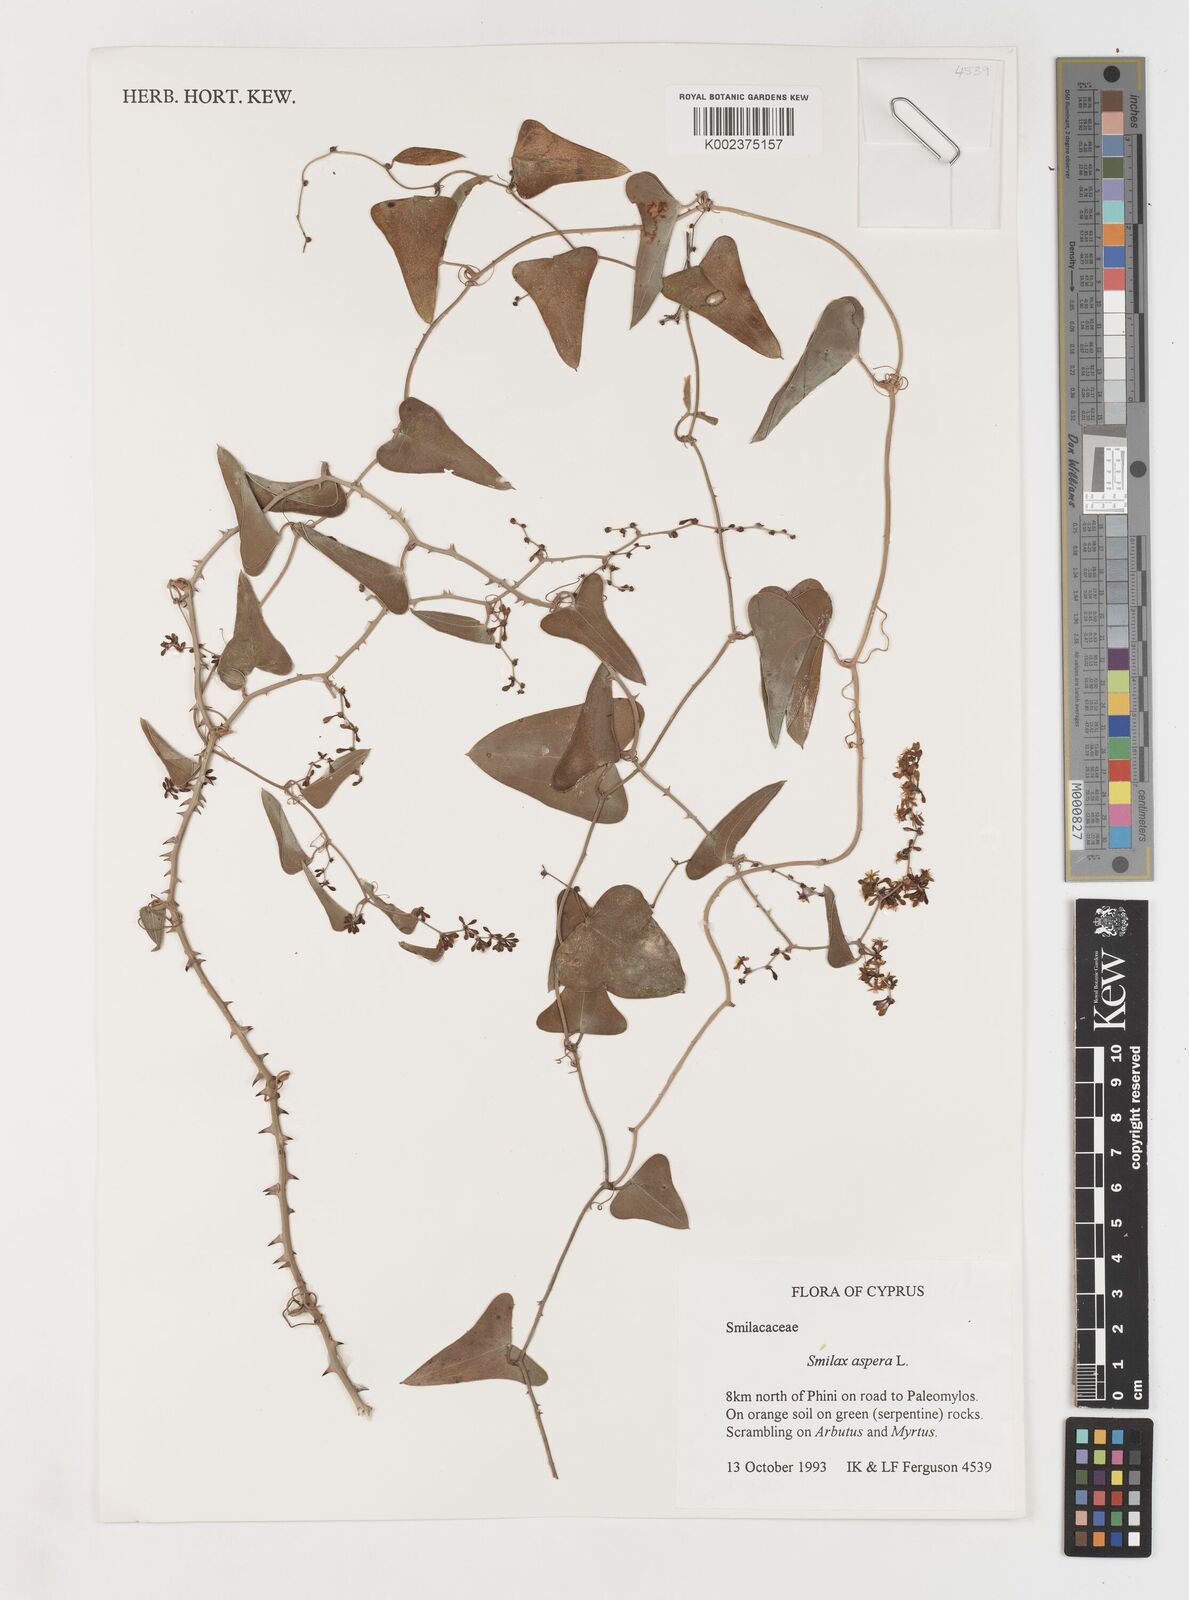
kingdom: Plantae
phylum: Tracheophyta
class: Liliopsida
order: Liliales
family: Smilacaceae
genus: Smilax
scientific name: Smilax aspera
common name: Common smilax
